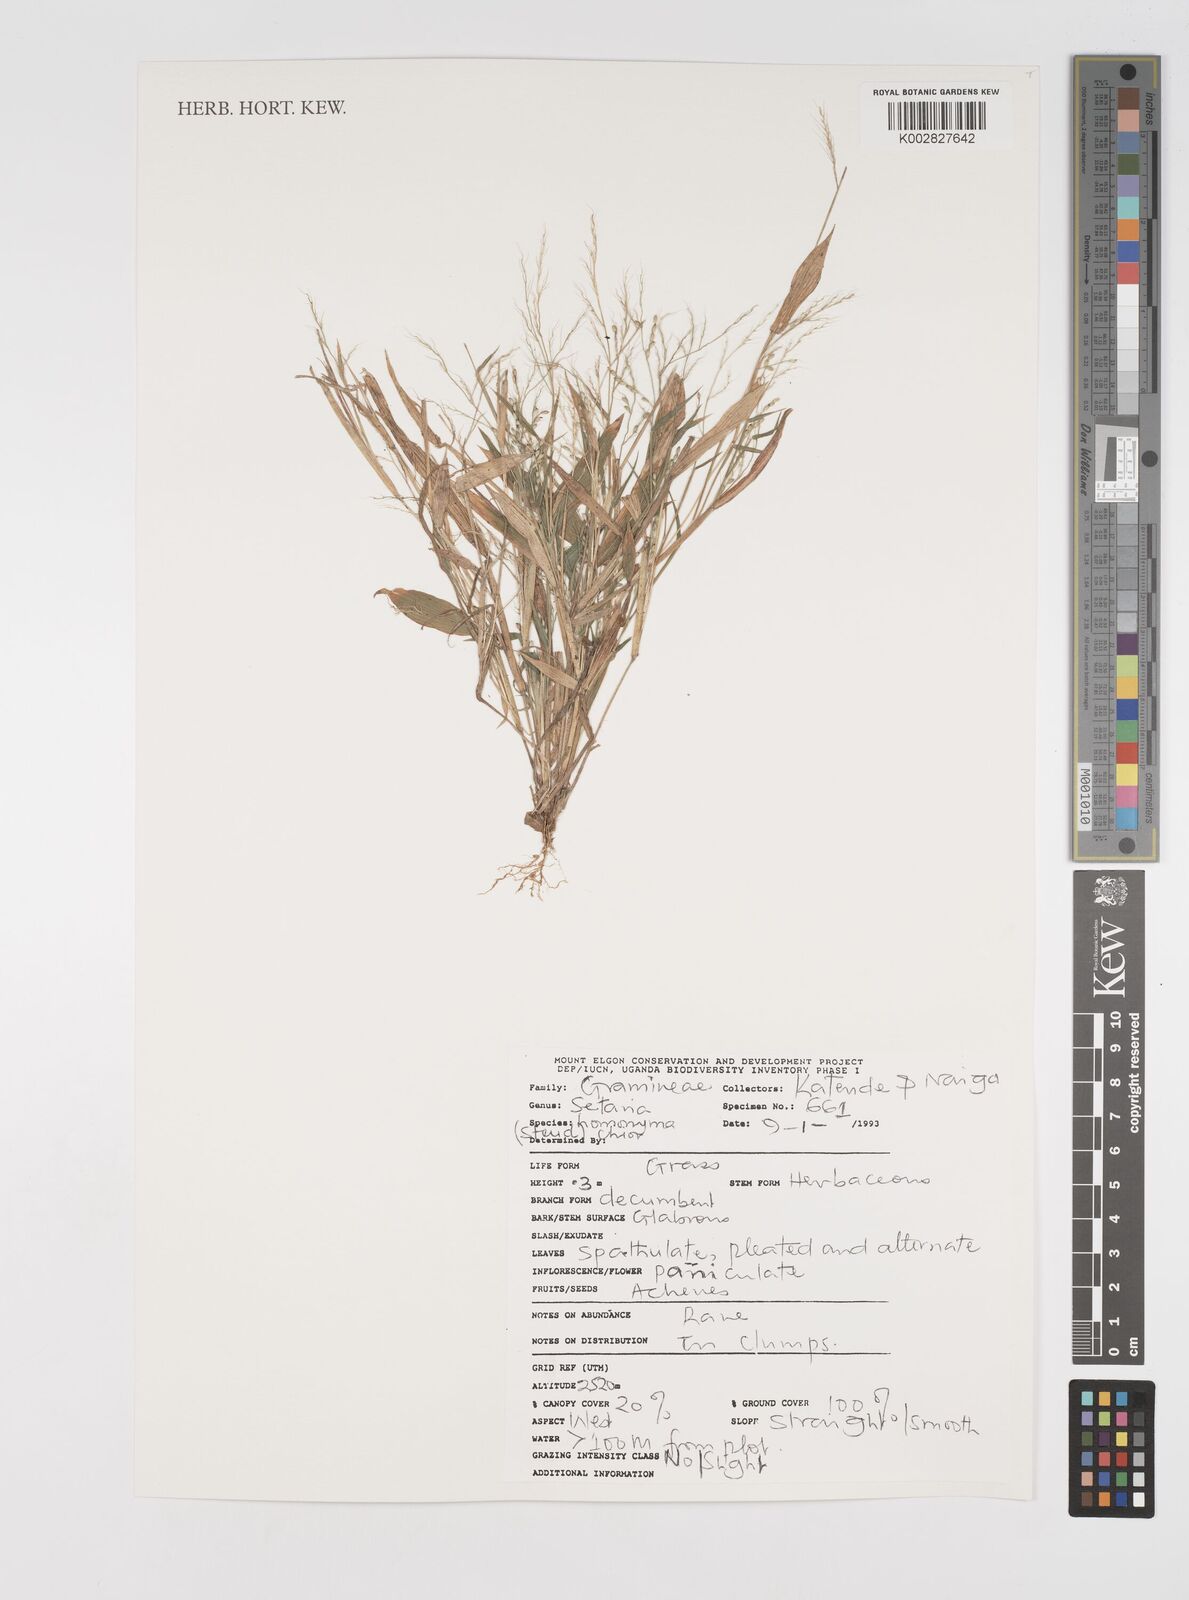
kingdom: Plantae
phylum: Tracheophyta
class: Liliopsida
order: Poales
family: Poaceae
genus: Setaria
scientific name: Setaria homonyma
